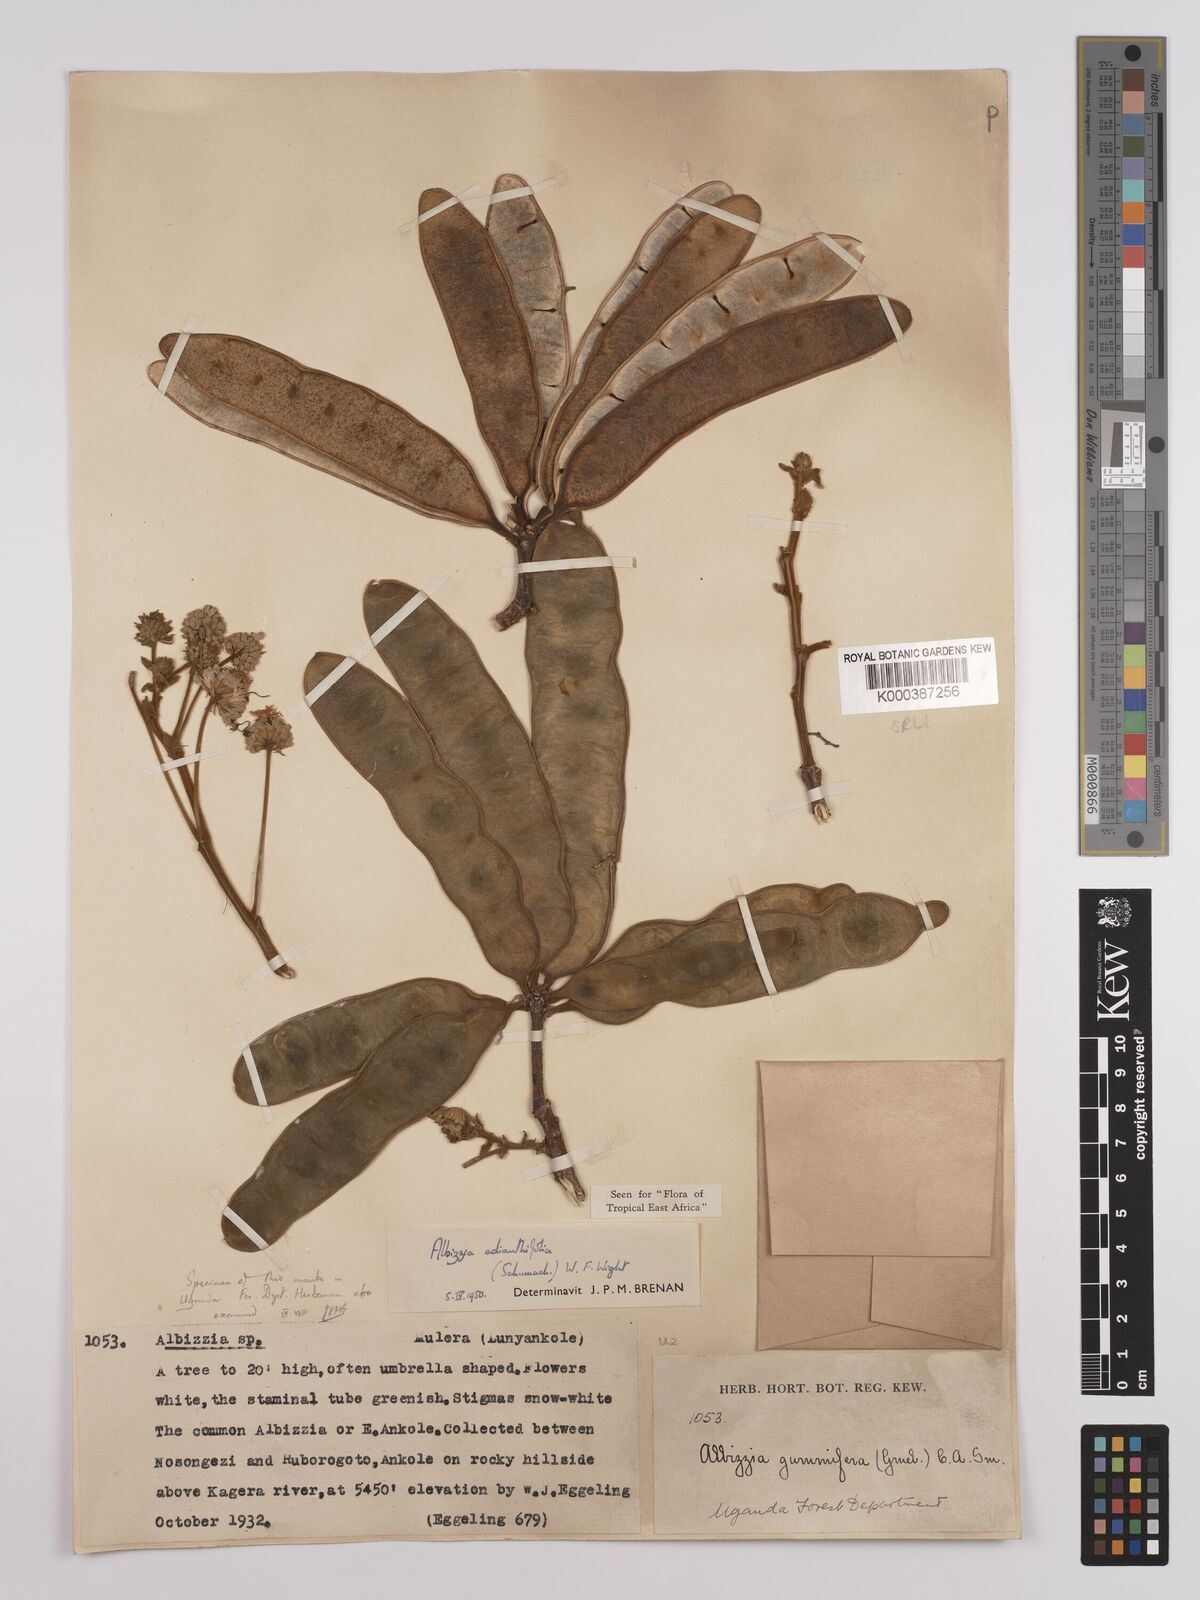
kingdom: Plantae
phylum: Tracheophyta
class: Magnoliopsida
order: Fabales
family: Fabaceae
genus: Albizia
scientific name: Albizia adianthifolia
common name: West african albizia
